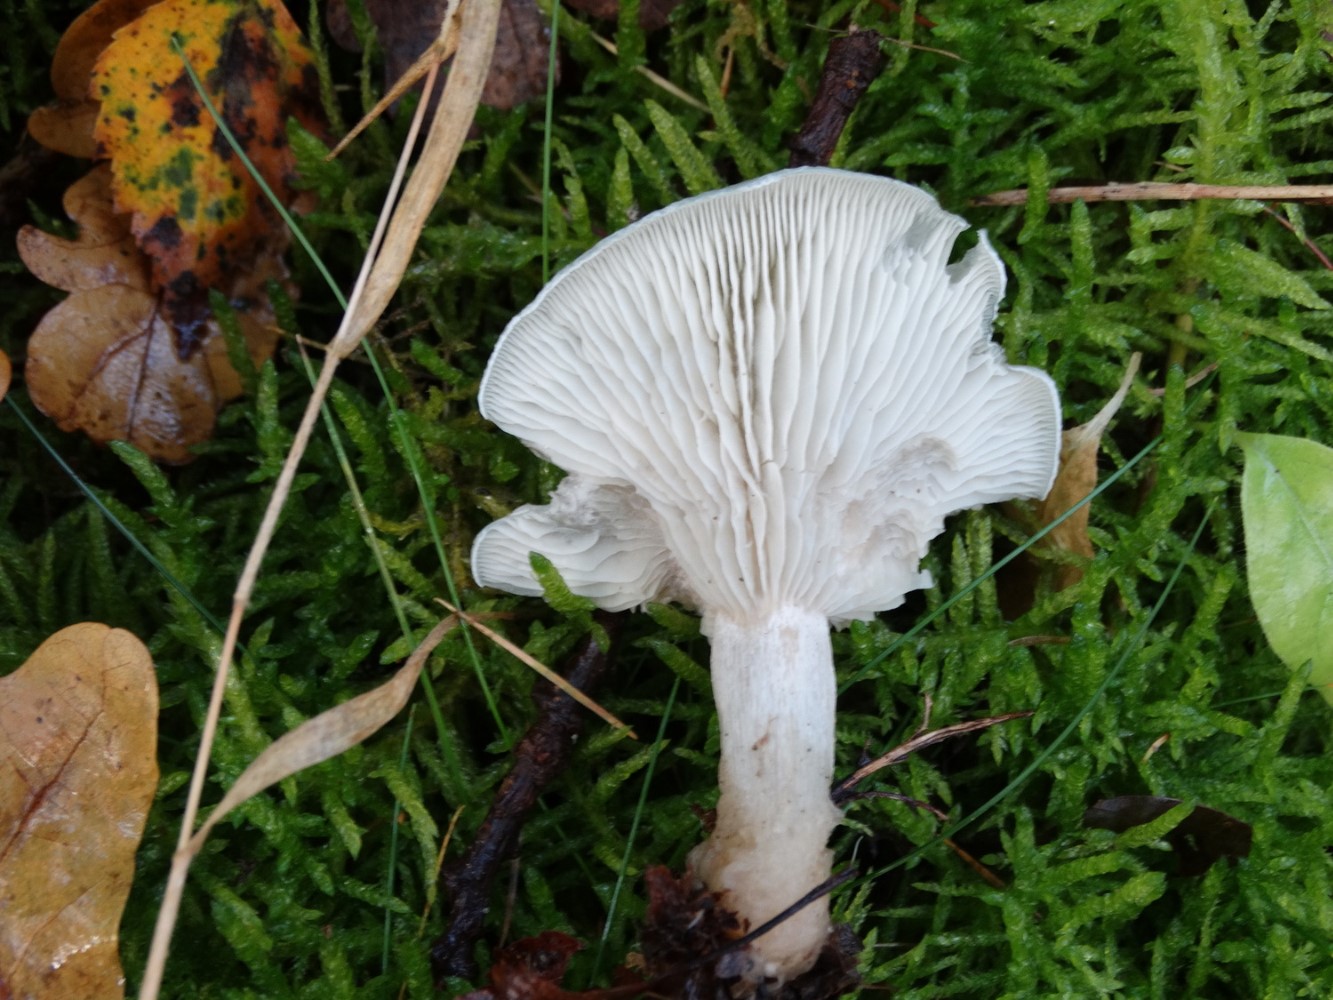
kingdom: Fungi
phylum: Basidiomycota
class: Agaricomycetes
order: Agaricales
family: Tricholomataceae
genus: Clitocybe
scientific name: Clitocybe odora
